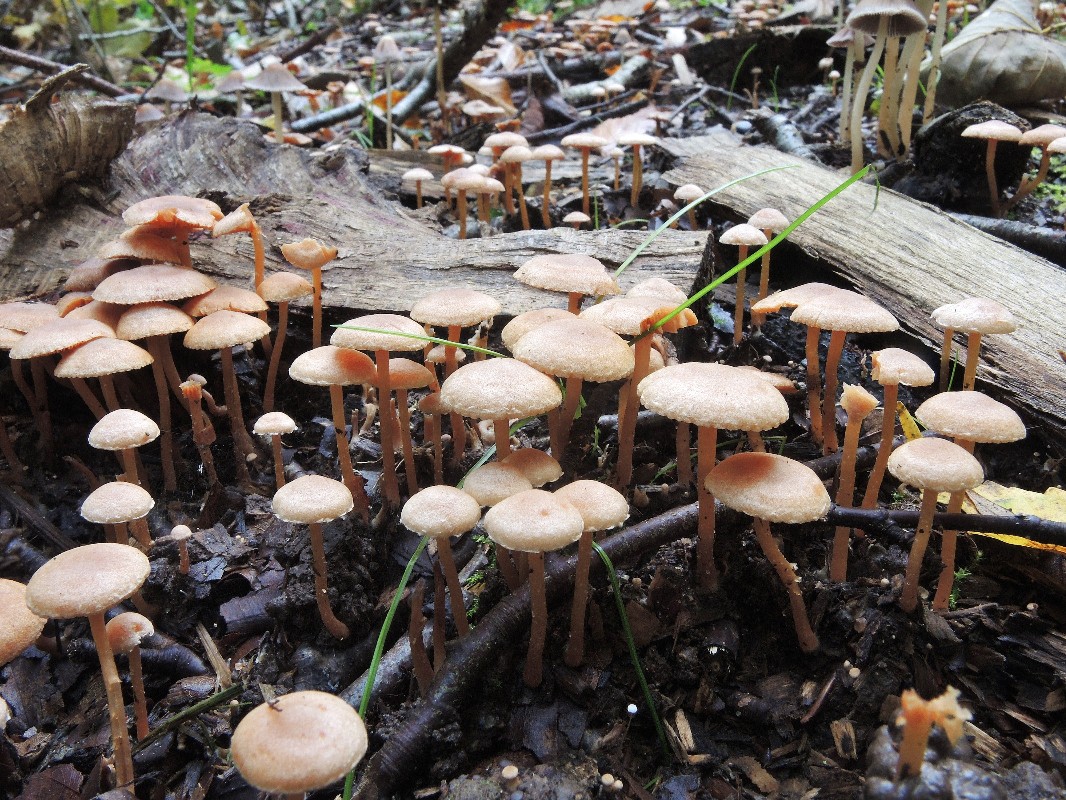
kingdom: Fungi
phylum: Basidiomycota
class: Agaricomycetes
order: Agaricales
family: Tubariaceae
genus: Tubaria
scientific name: Tubaria furfuracea
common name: kliddet fnughat
